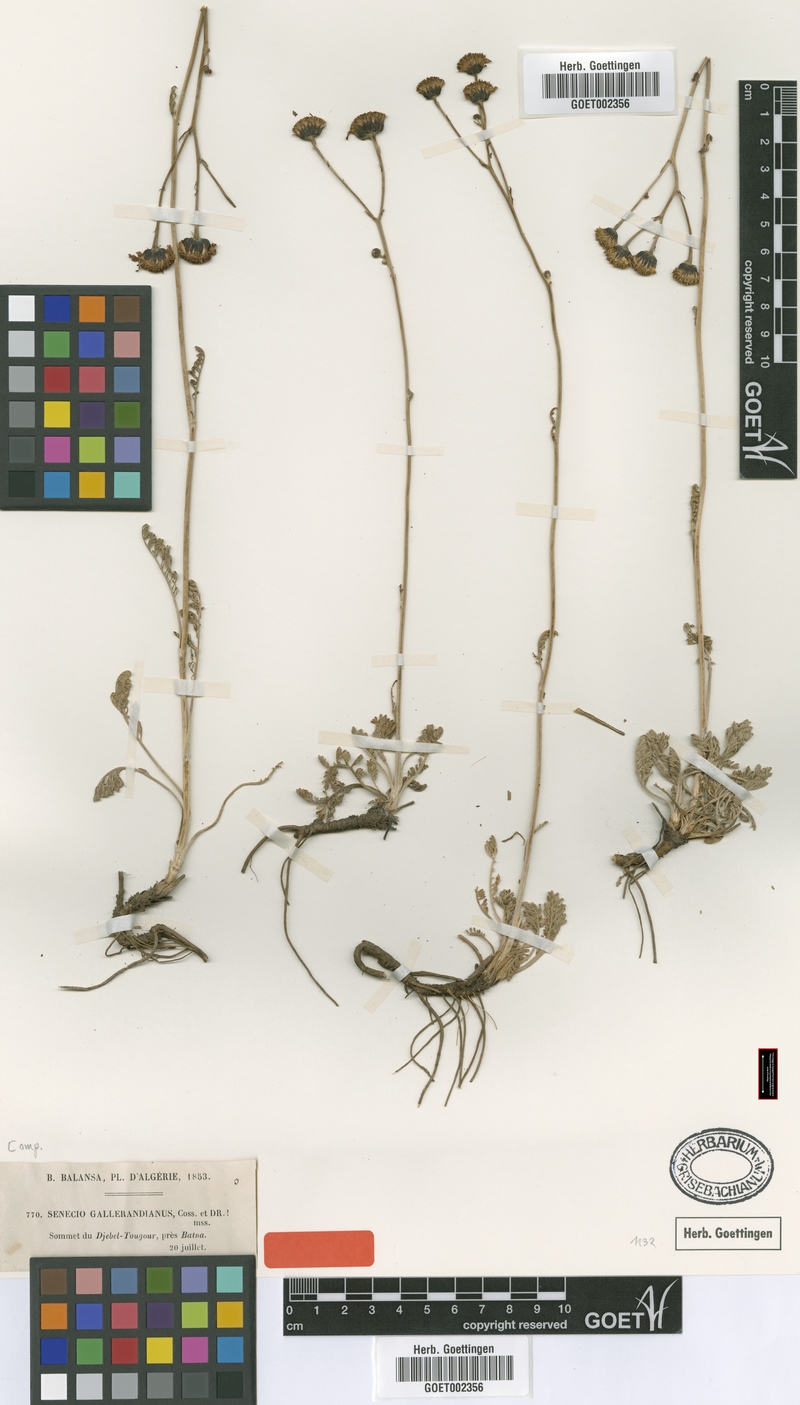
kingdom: Plantae
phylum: Tracheophyta
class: Magnoliopsida
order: Asterales
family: Asteraceae
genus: Jacobaea
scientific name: Jacobaea gallerandiana
